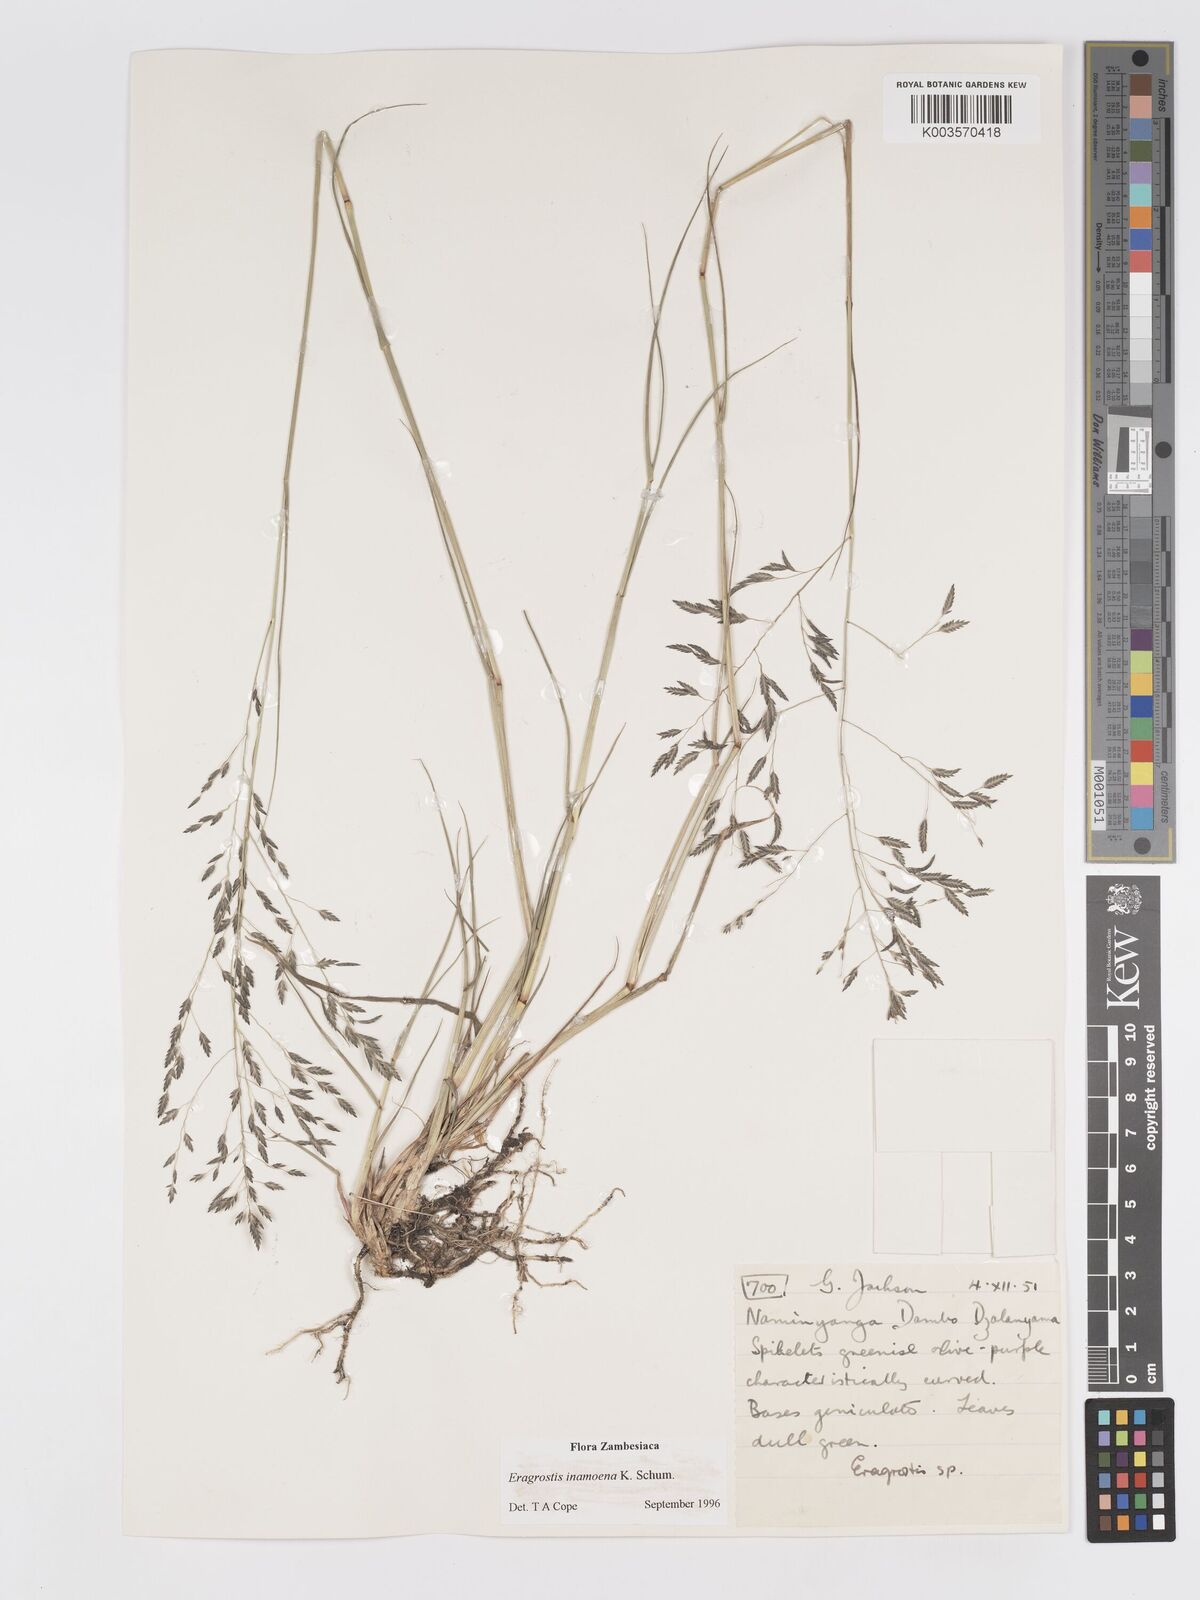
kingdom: Plantae
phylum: Tracheophyta
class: Liliopsida
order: Poales
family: Poaceae
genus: Eragrostis
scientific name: Eragrostis inamoena
